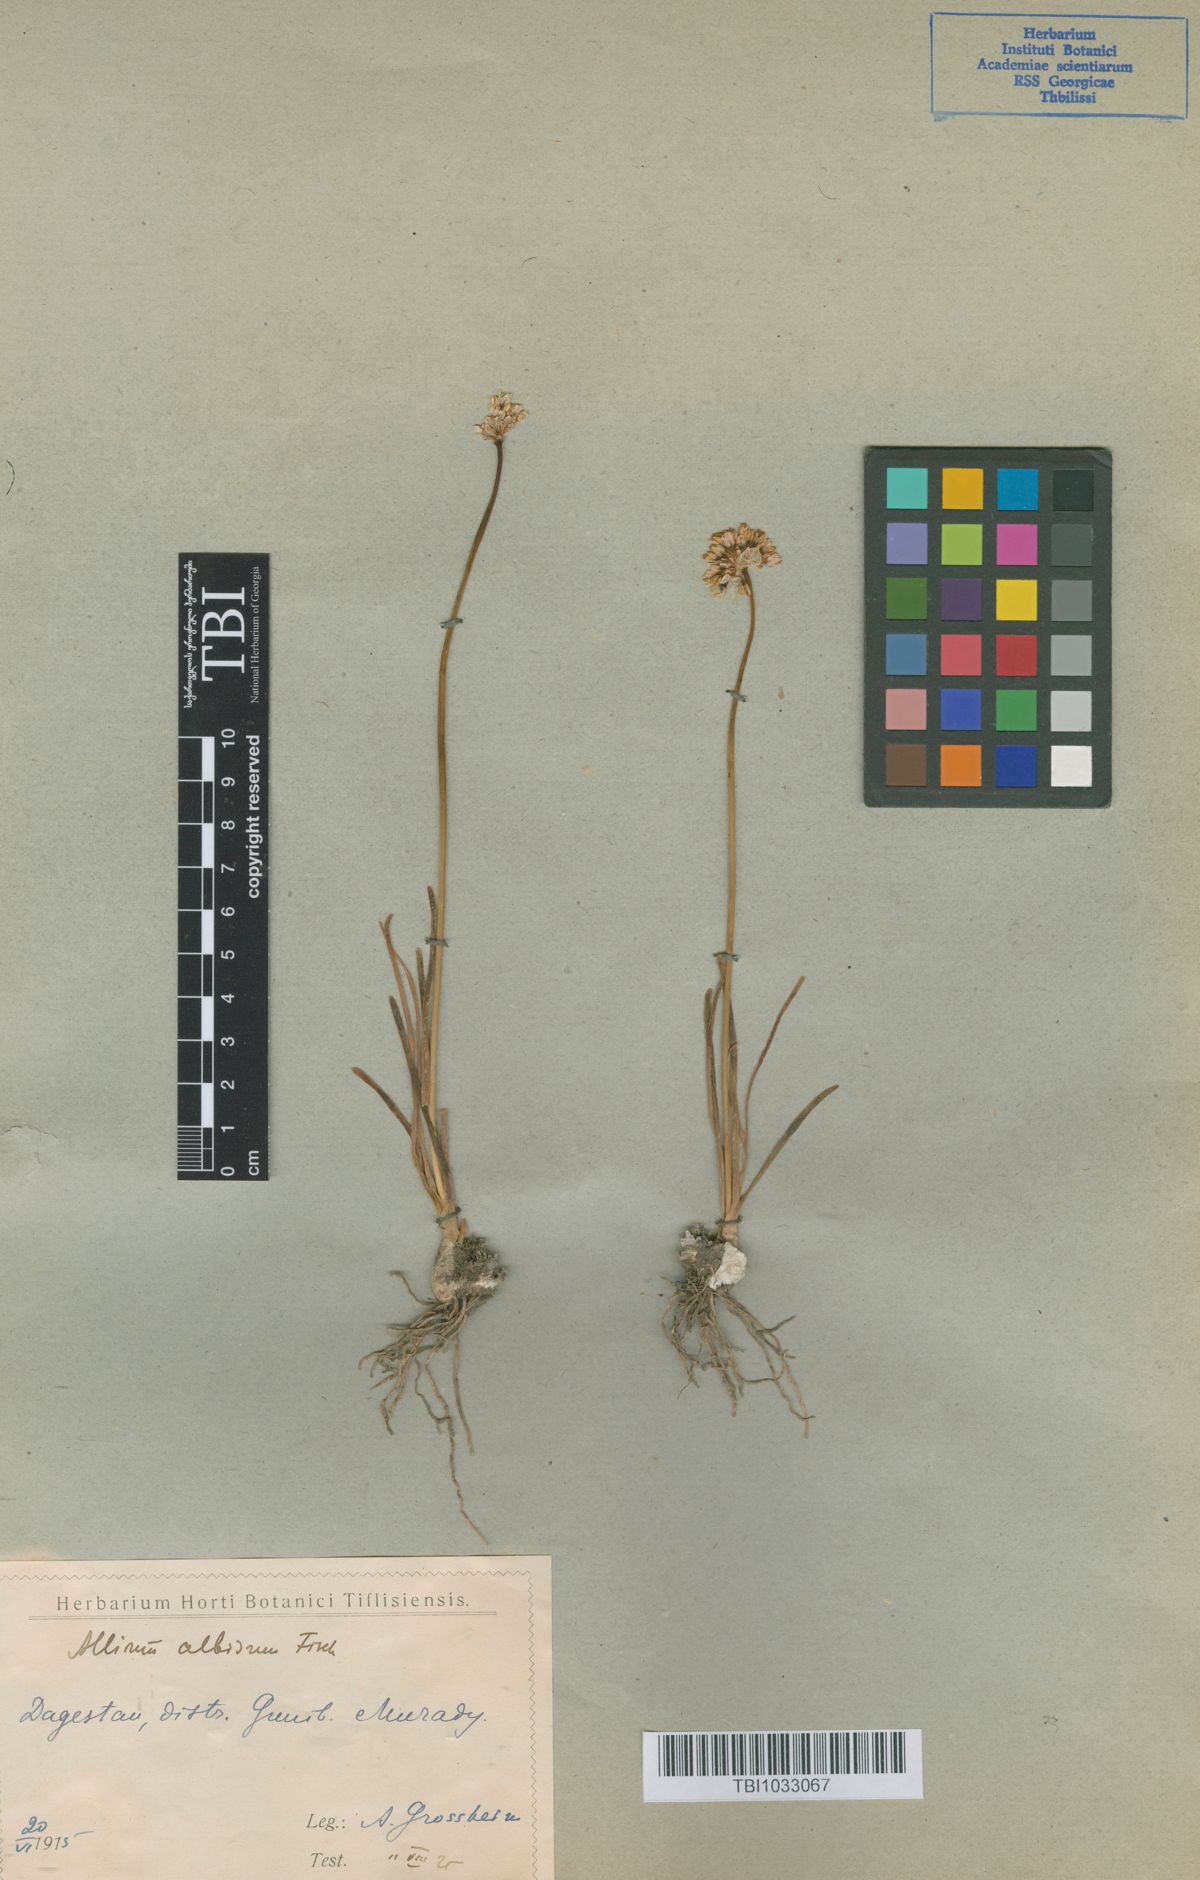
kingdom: Plantae
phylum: Tracheophyta
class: Liliopsida
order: Asparagales
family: Amaryllidaceae
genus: Allium
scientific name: Allium denudatum
